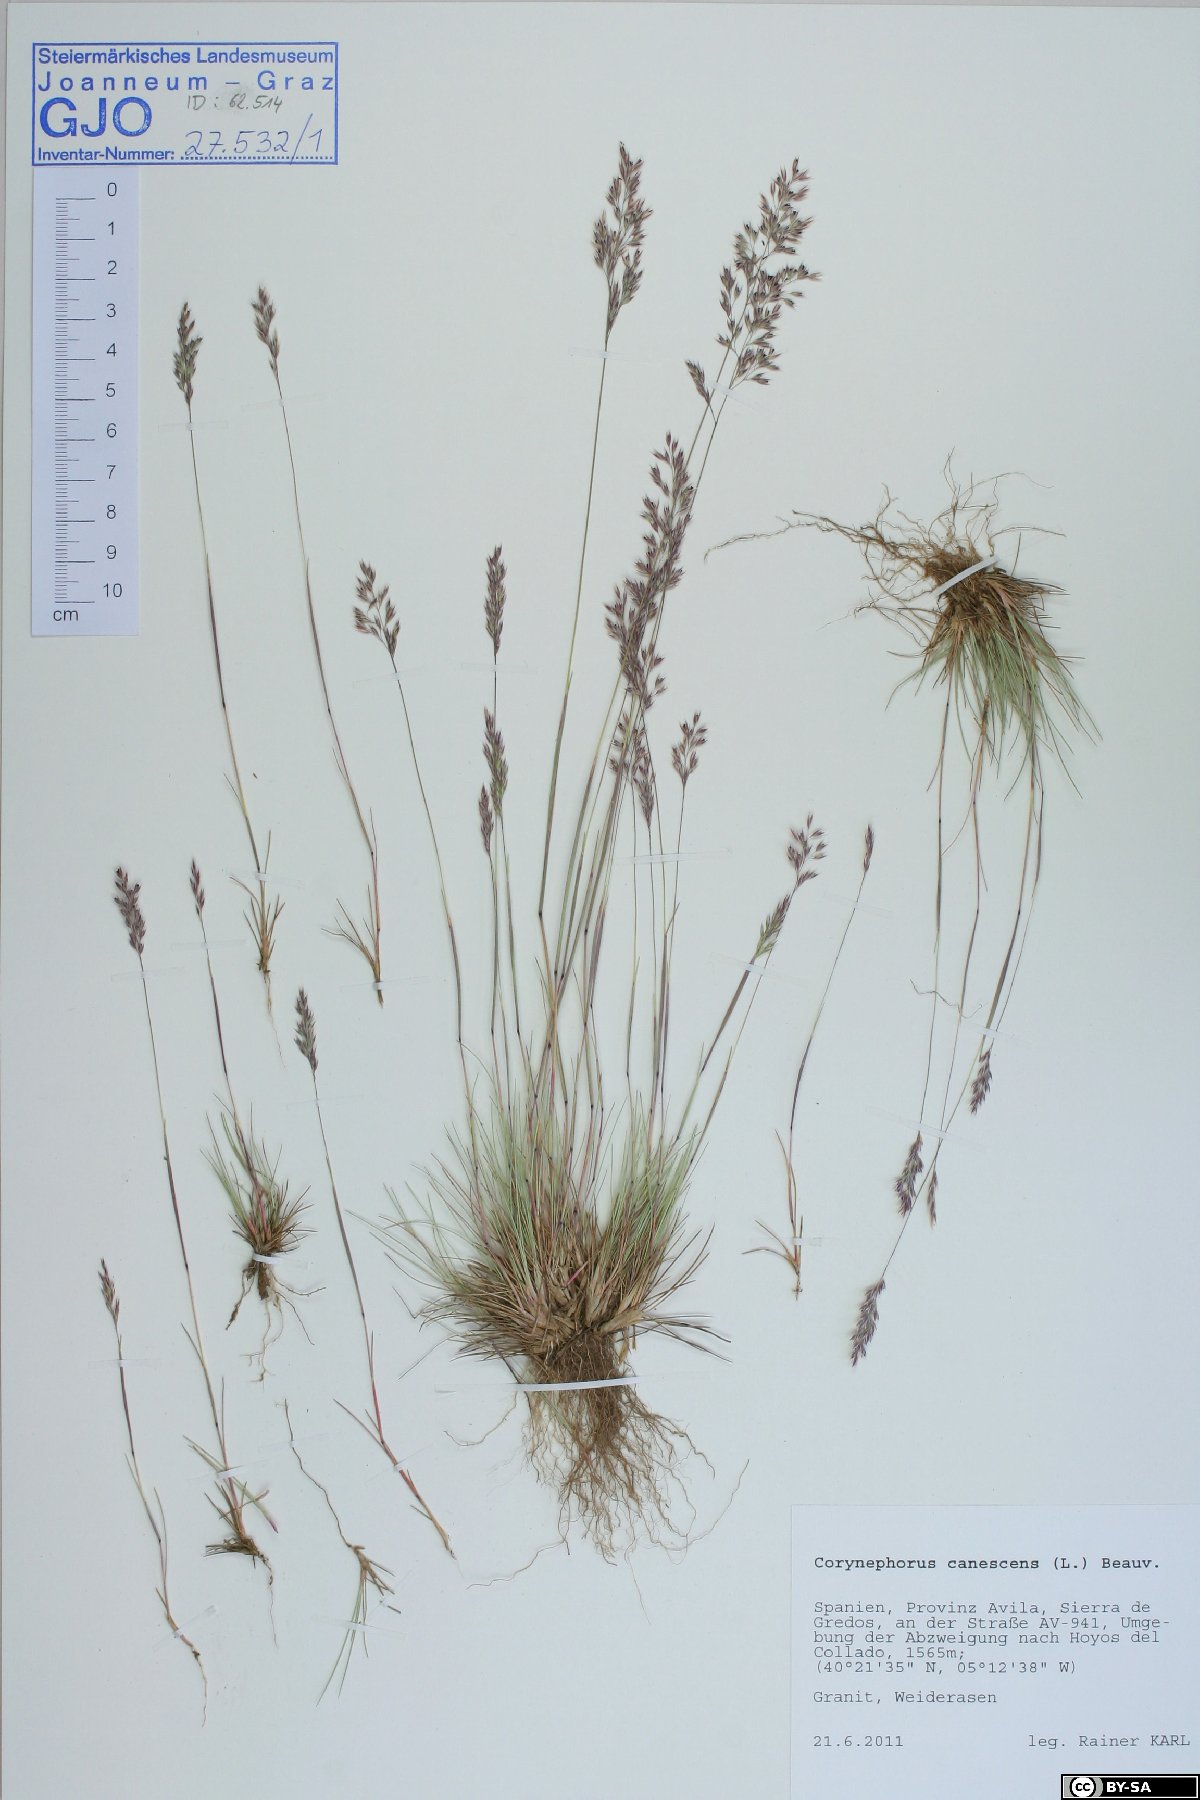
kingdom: Plantae
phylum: Tracheophyta
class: Liliopsida
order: Poales
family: Poaceae
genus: Corynephorus
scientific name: Corynephorus canescens
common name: Grey hair-grass
